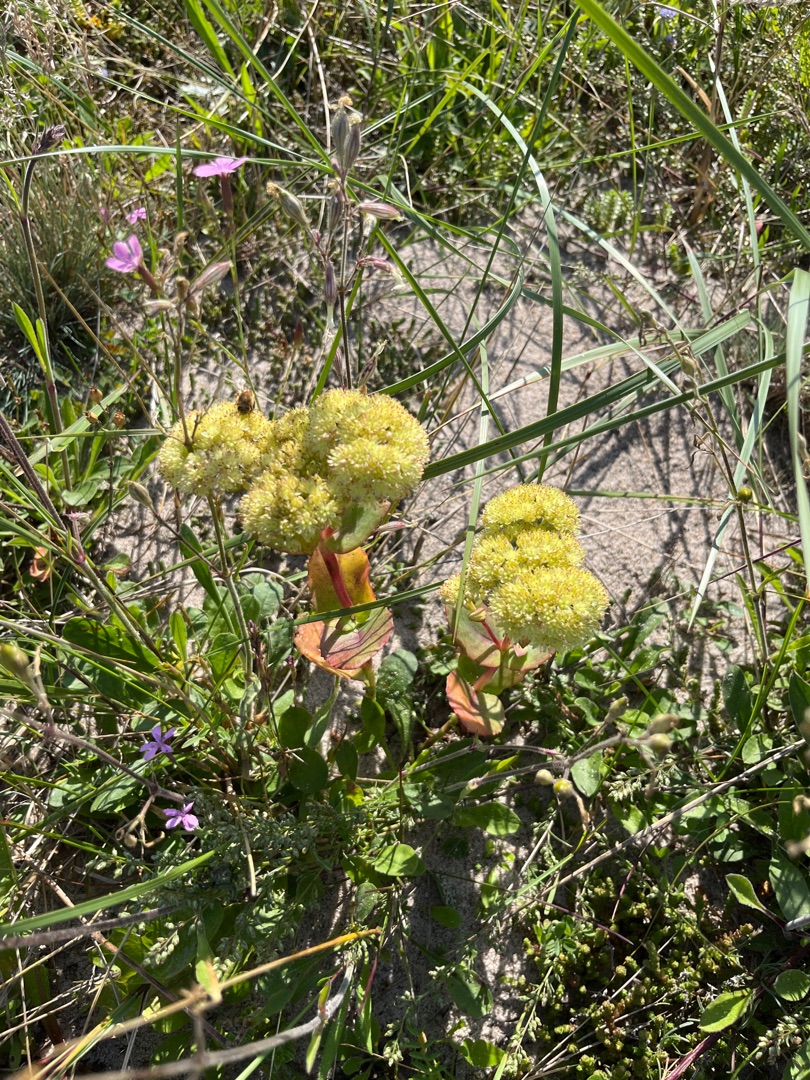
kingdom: Plantae
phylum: Tracheophyta
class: Magnoliopsida
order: Saxifragales
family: Crassulaceae
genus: Hylotelephium
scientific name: Hylotelephium maximum
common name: Almindelig sankthansurt
